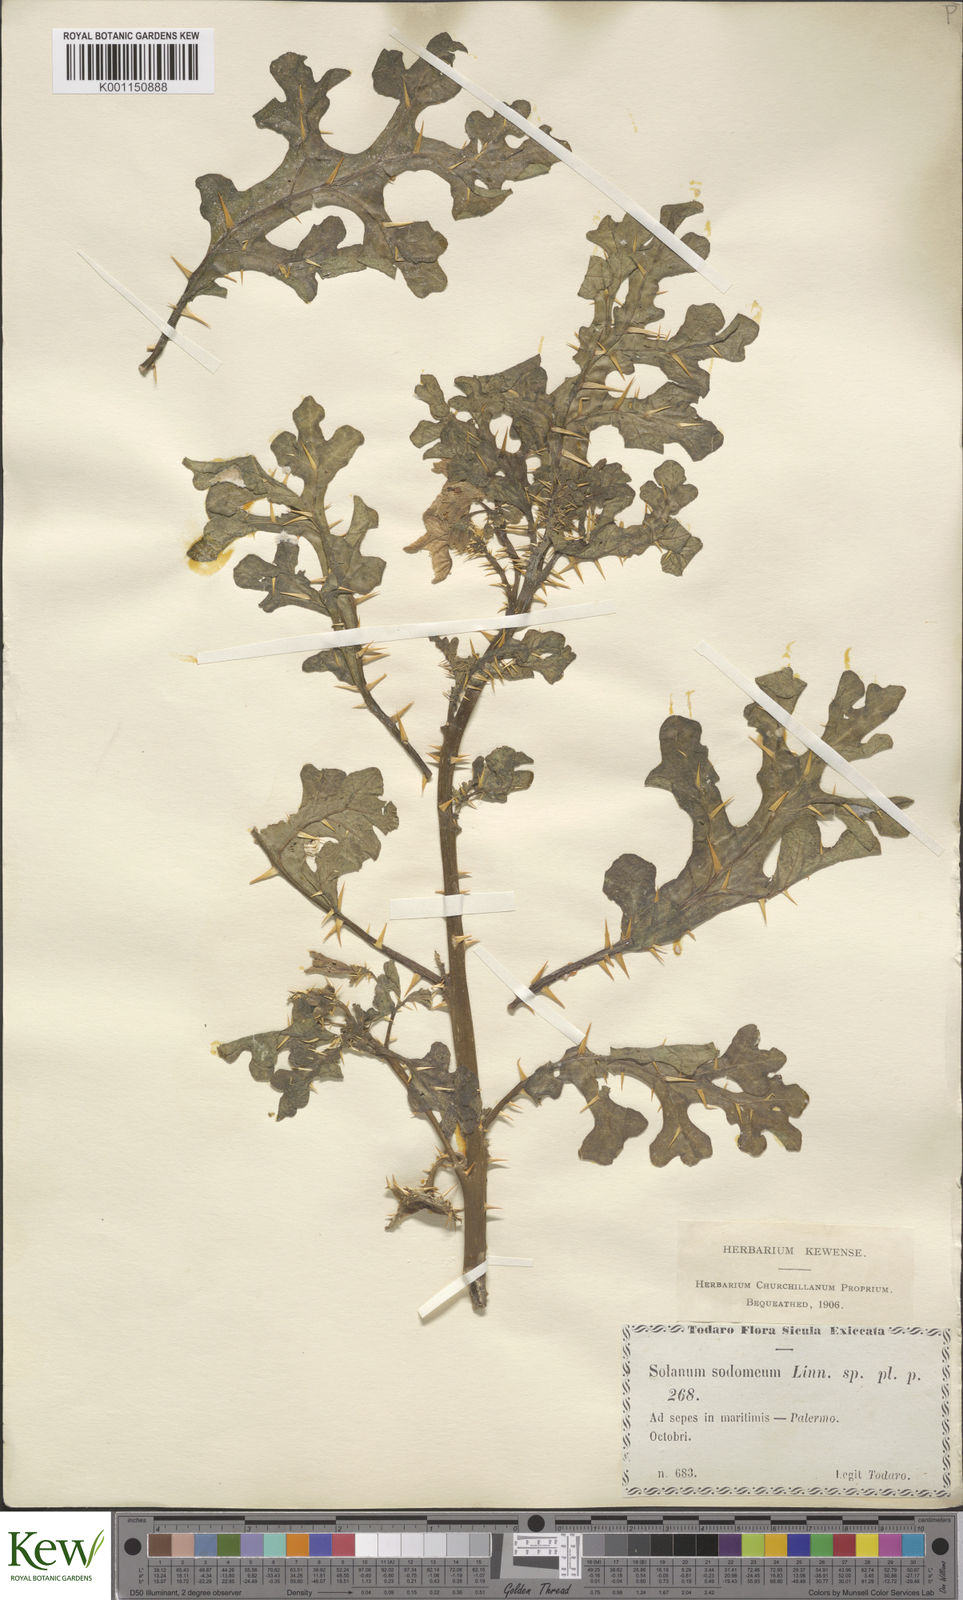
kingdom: Plantae
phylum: Tracheophyta
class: Magnoliopsida
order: Solanales
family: Solanaceae
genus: Solanum
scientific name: Solanum anguivi
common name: Forest bitterberry
